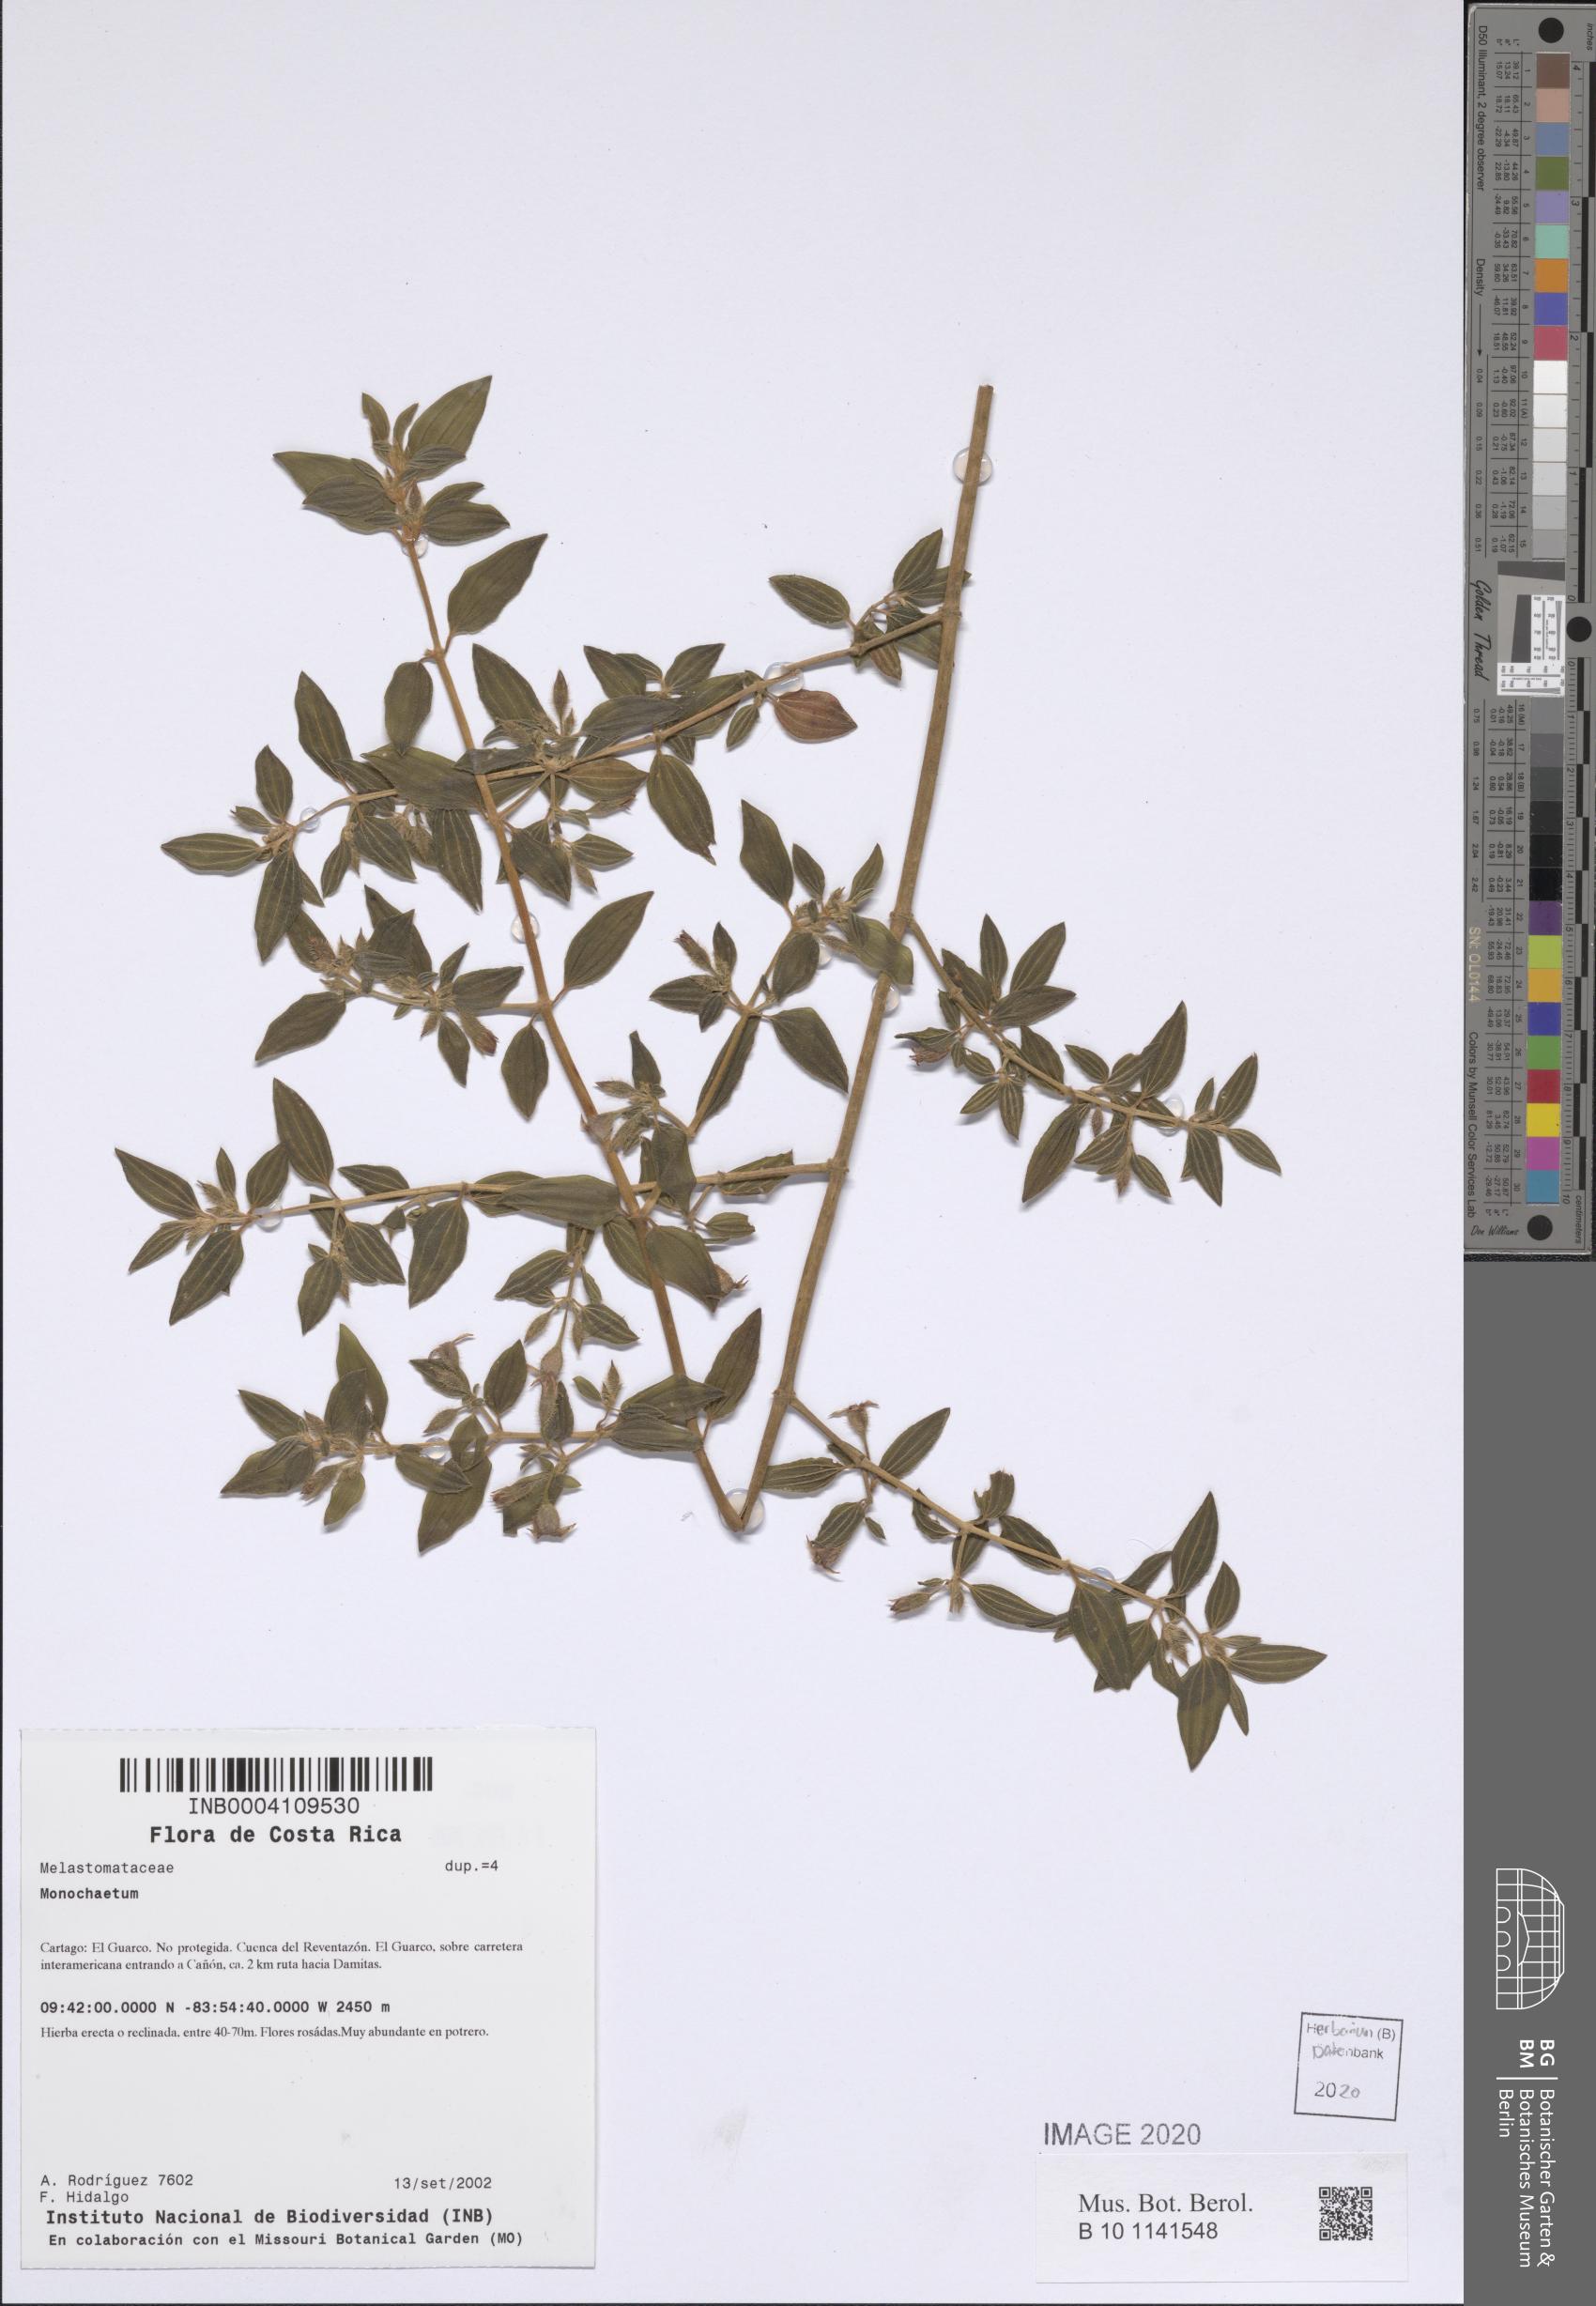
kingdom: Plantae
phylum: Tracheophyta
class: Magnoliopsida
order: Myrtales
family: Melastomataceae
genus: Monochaetum
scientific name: Monochaetum
